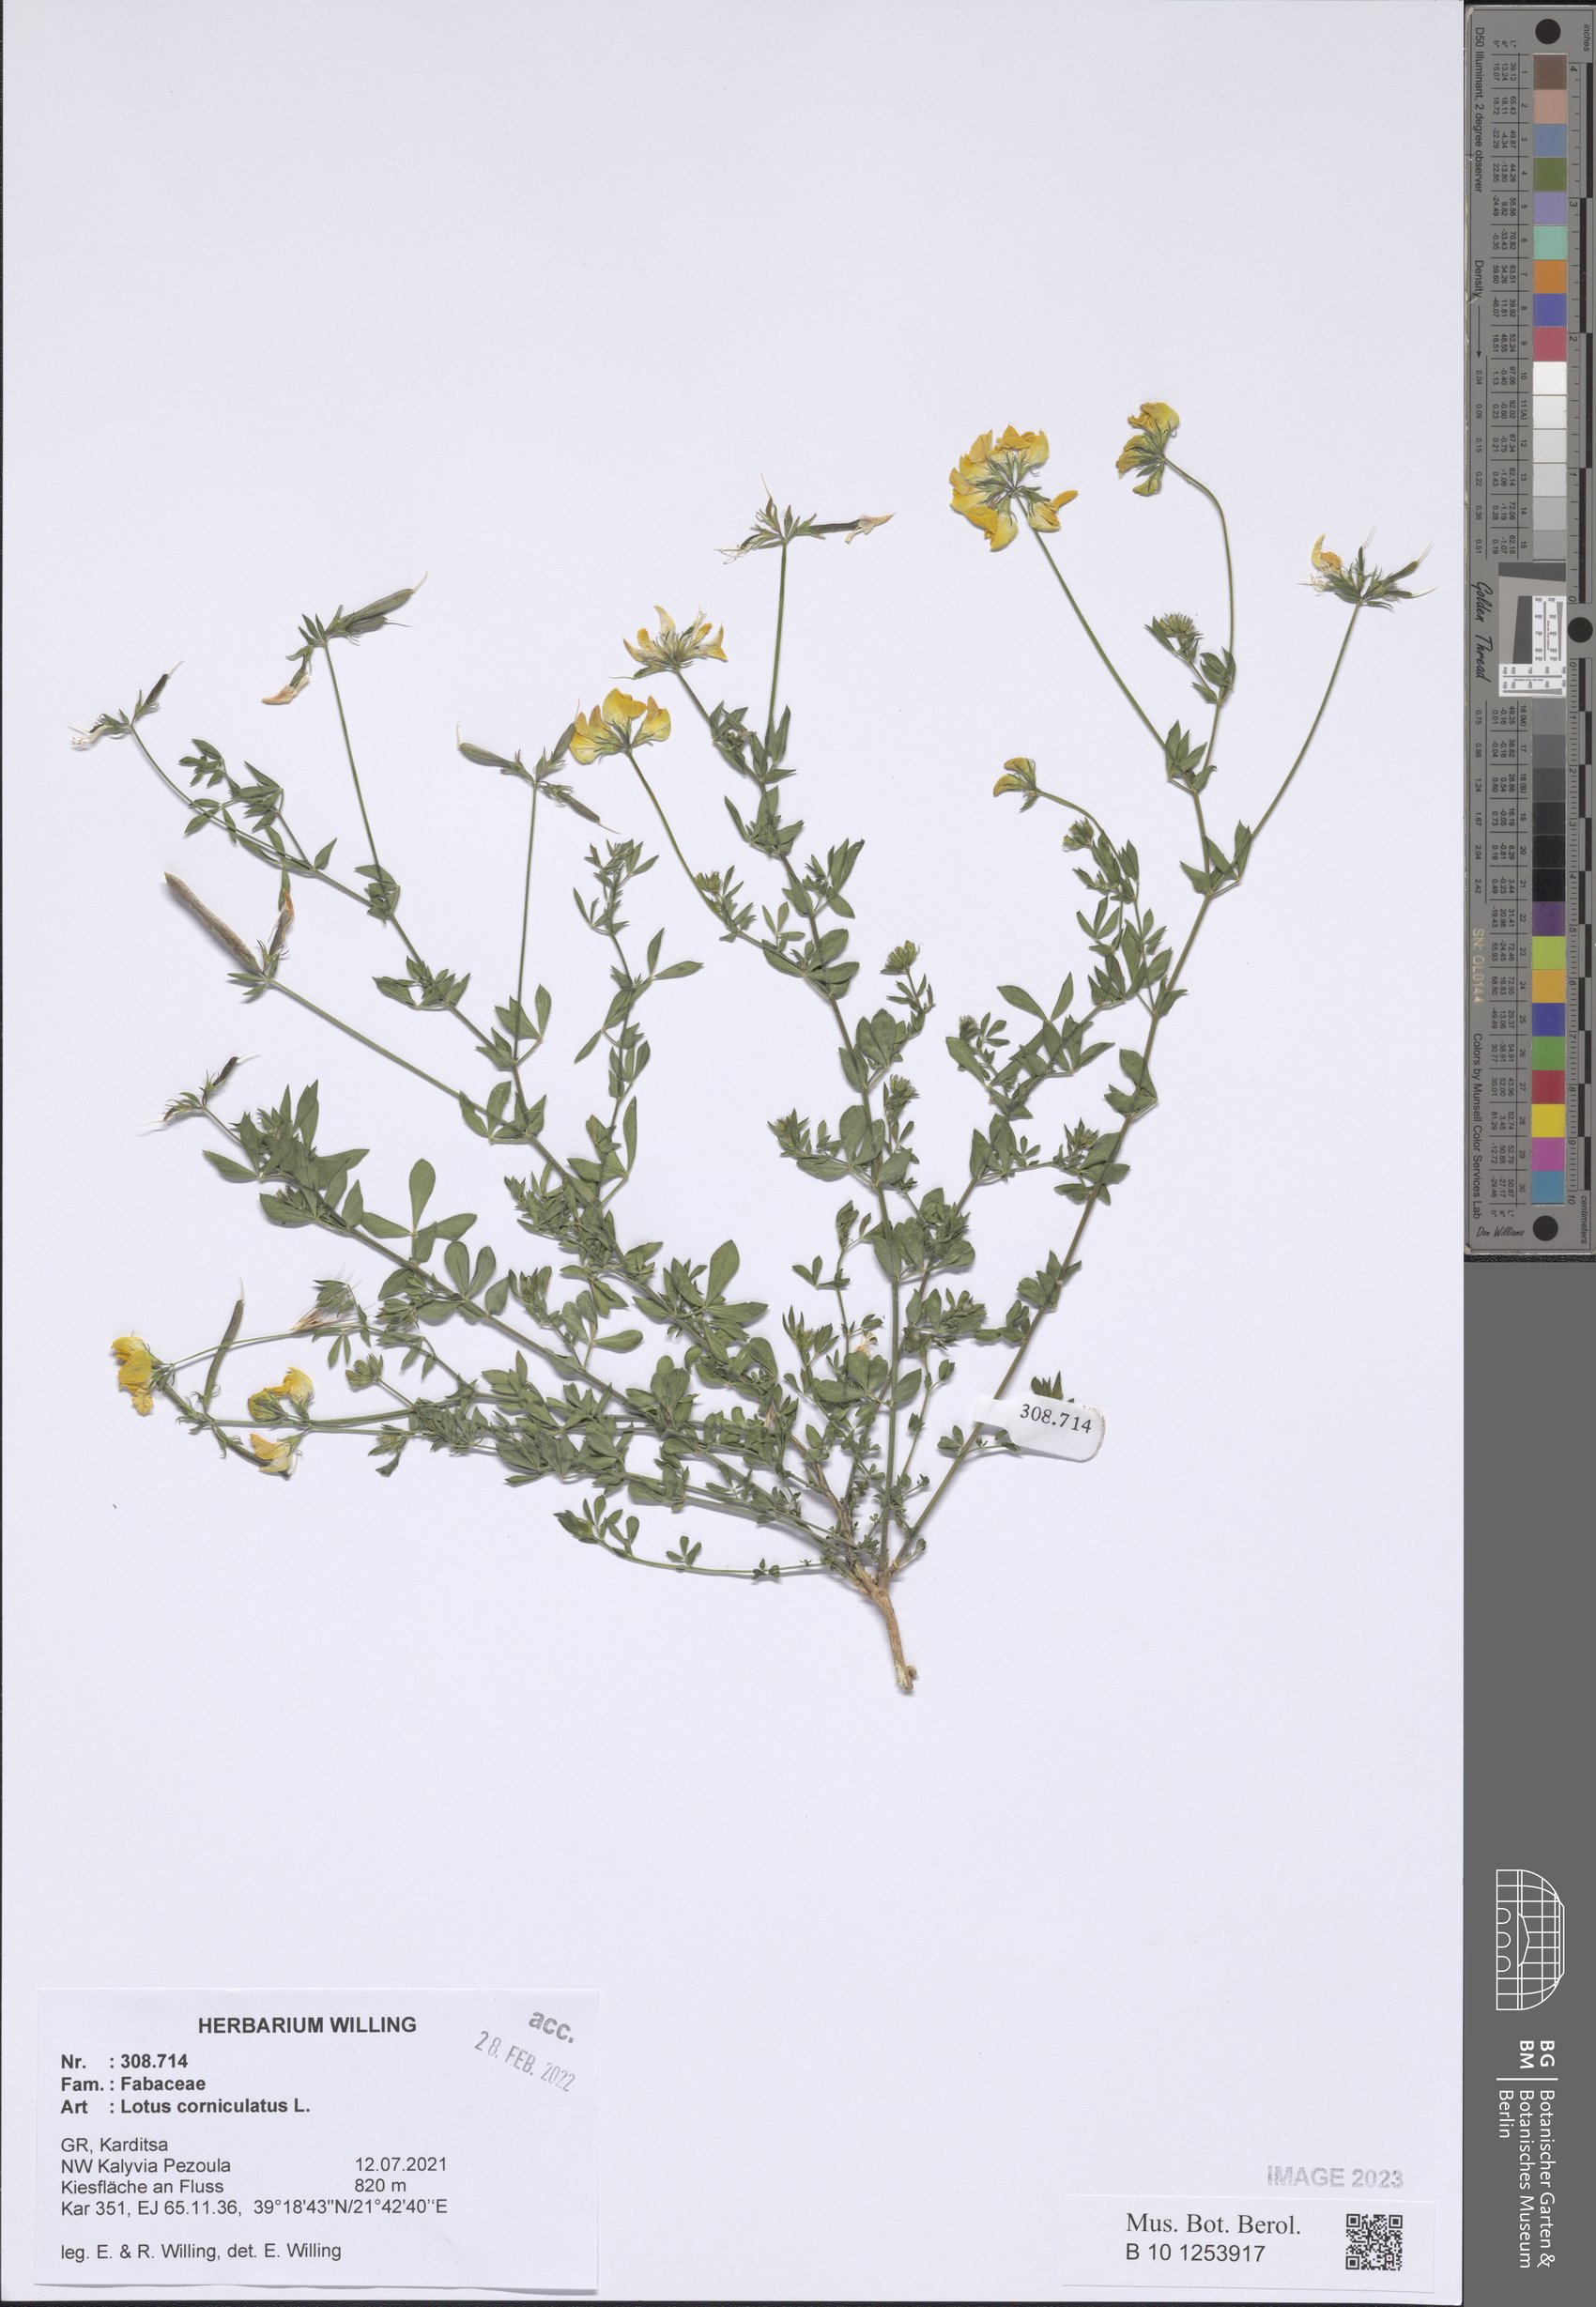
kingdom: Plantae
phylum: Tracheophyta
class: Magnoliopsida
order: Fabales
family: Fabaceae
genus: Lotus
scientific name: Lotus corniculatus
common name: Common bird's-foot-trefoil
